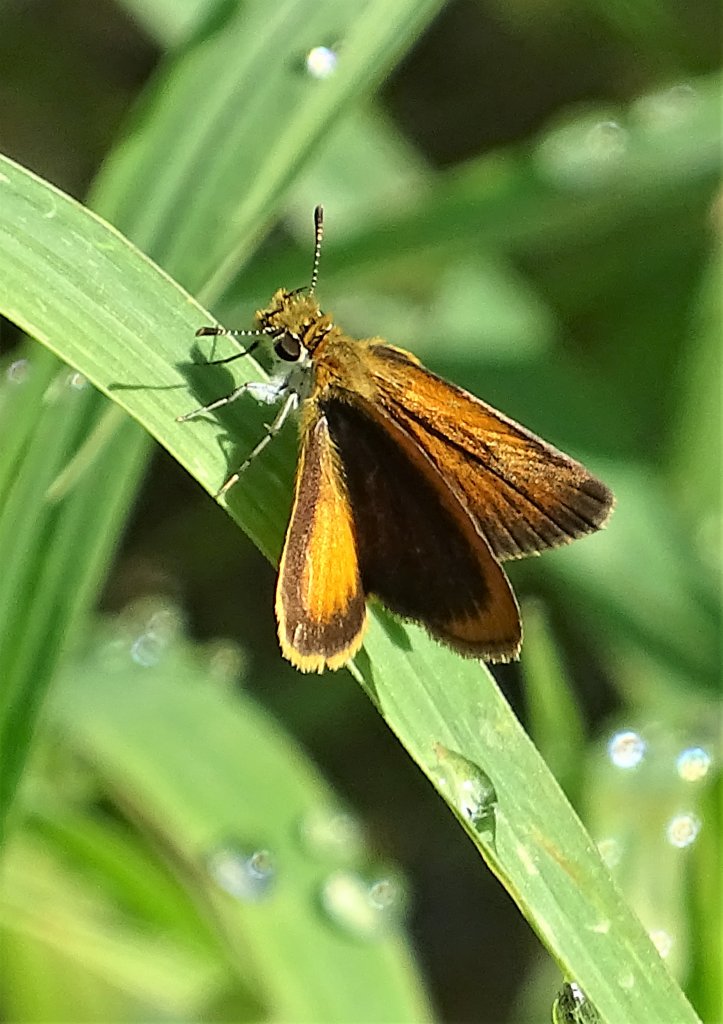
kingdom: Animalia
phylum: Arthropoda
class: Insecta
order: Lepidoptera
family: Hesperiidae
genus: Ancyloxypha
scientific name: Ancyloxypha numitor
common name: Least Skipper
